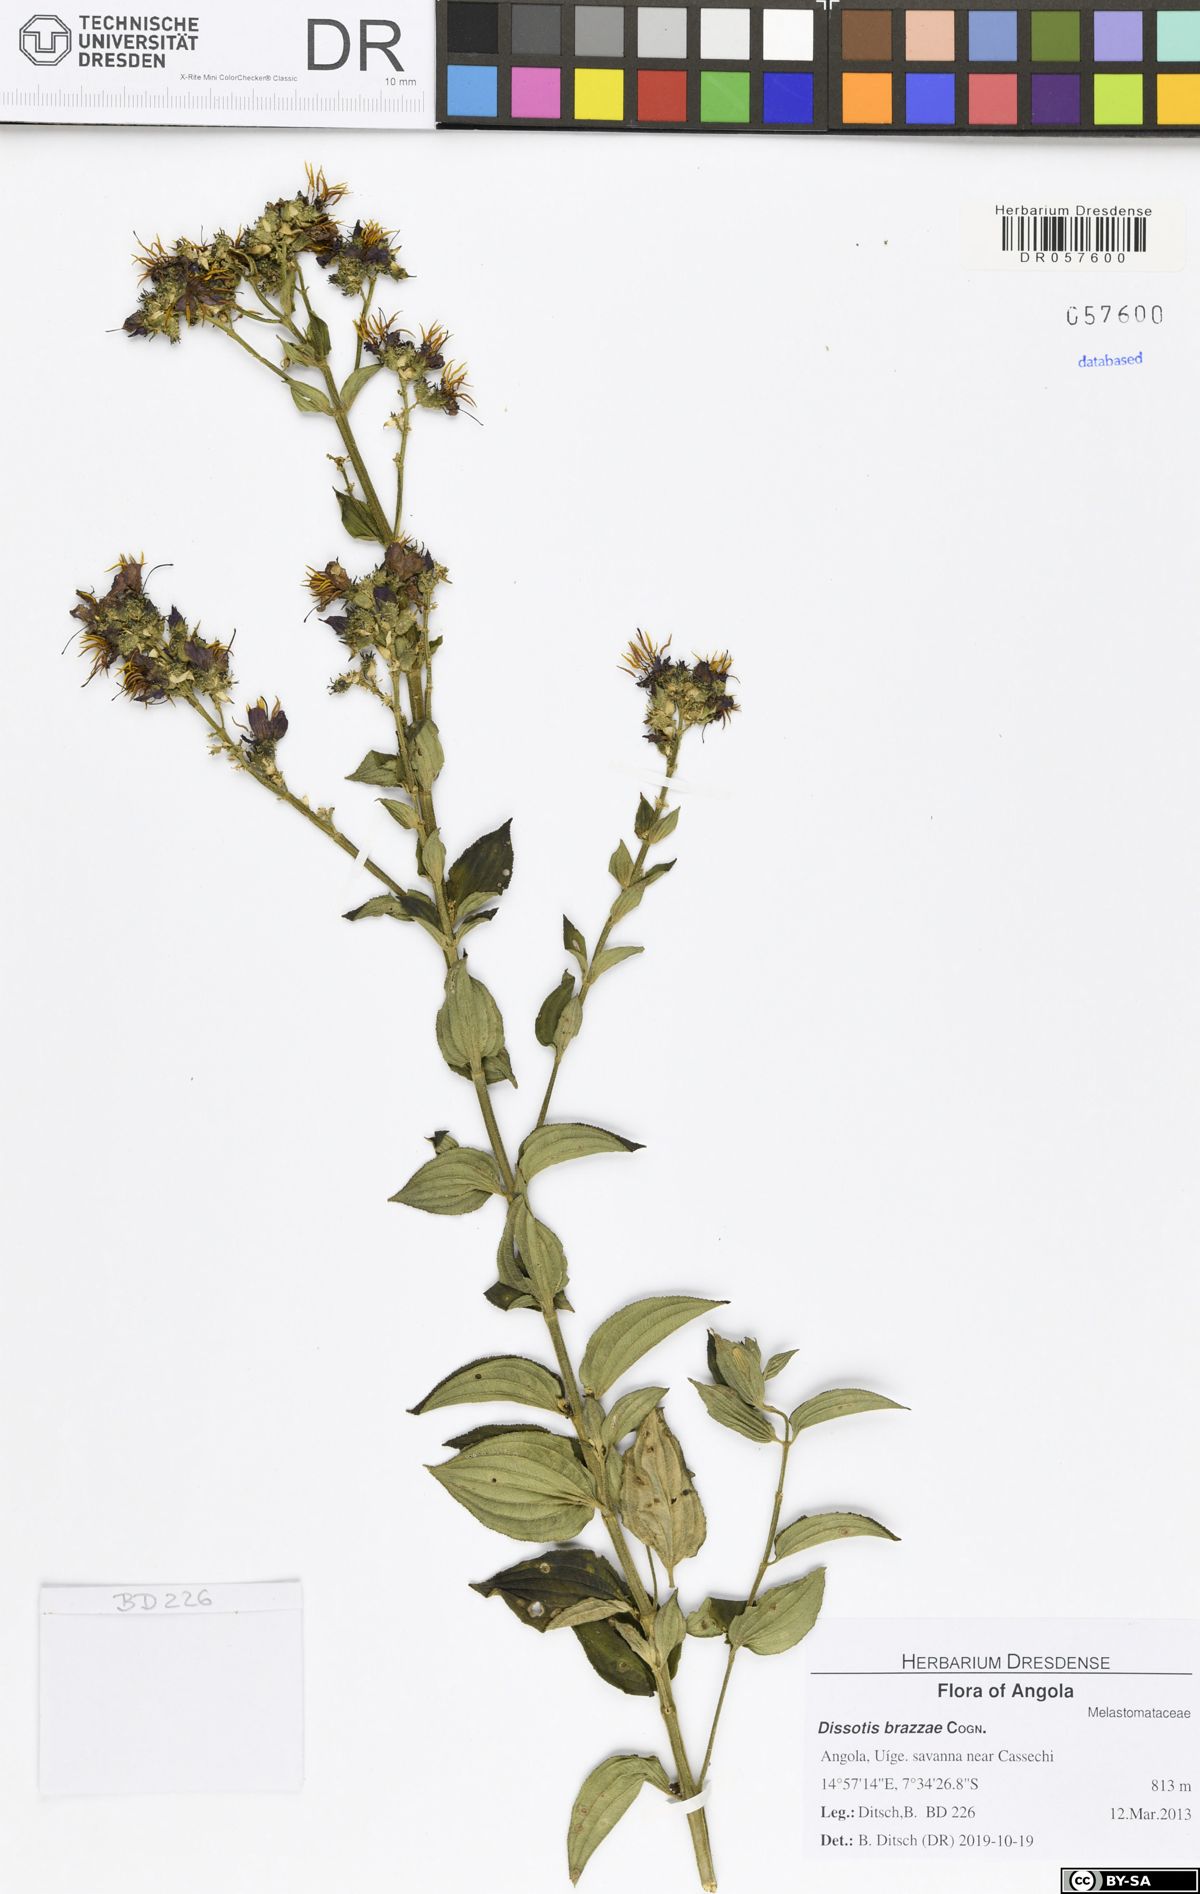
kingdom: Plantae
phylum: Tracheophyta
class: Magnoliopsida
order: Myrtales
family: Melastomataceae
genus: Dupineta
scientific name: Dupineta brazzae
